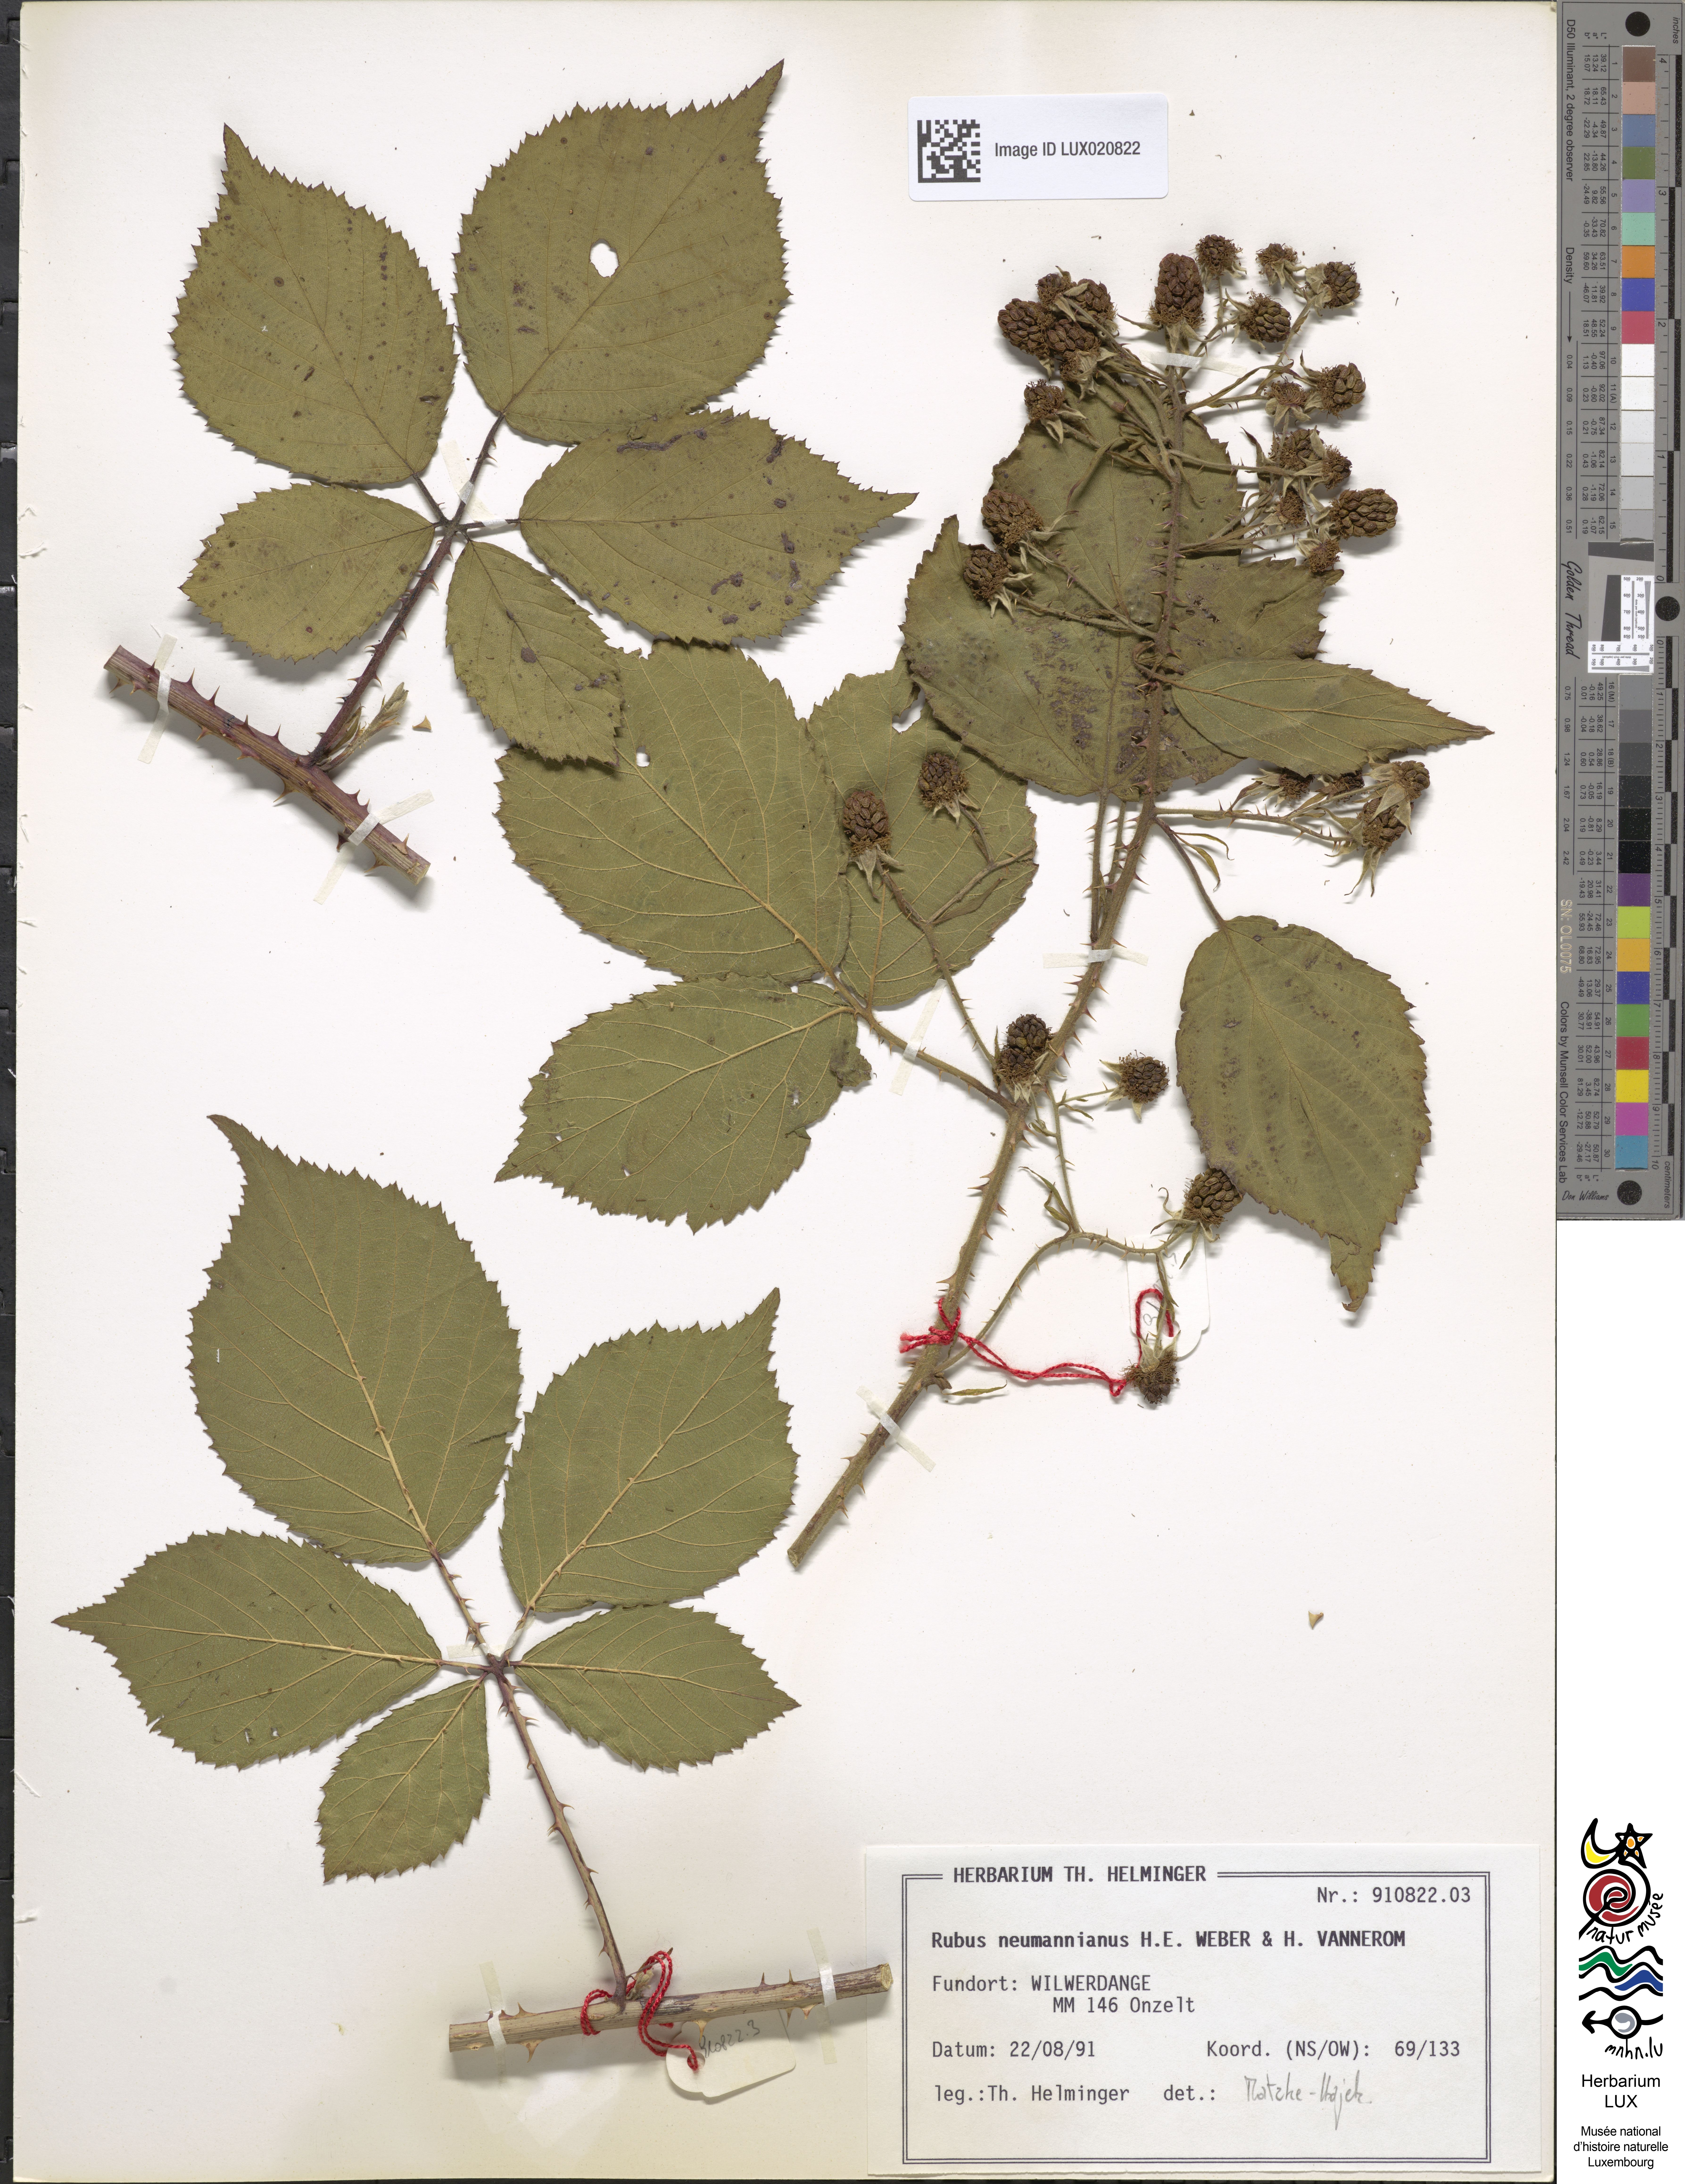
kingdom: Plantae
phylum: Tracheophyta
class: Magnoliopsida
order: Rosales
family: Rosaceae
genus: Rubus
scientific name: Rubus favonii
